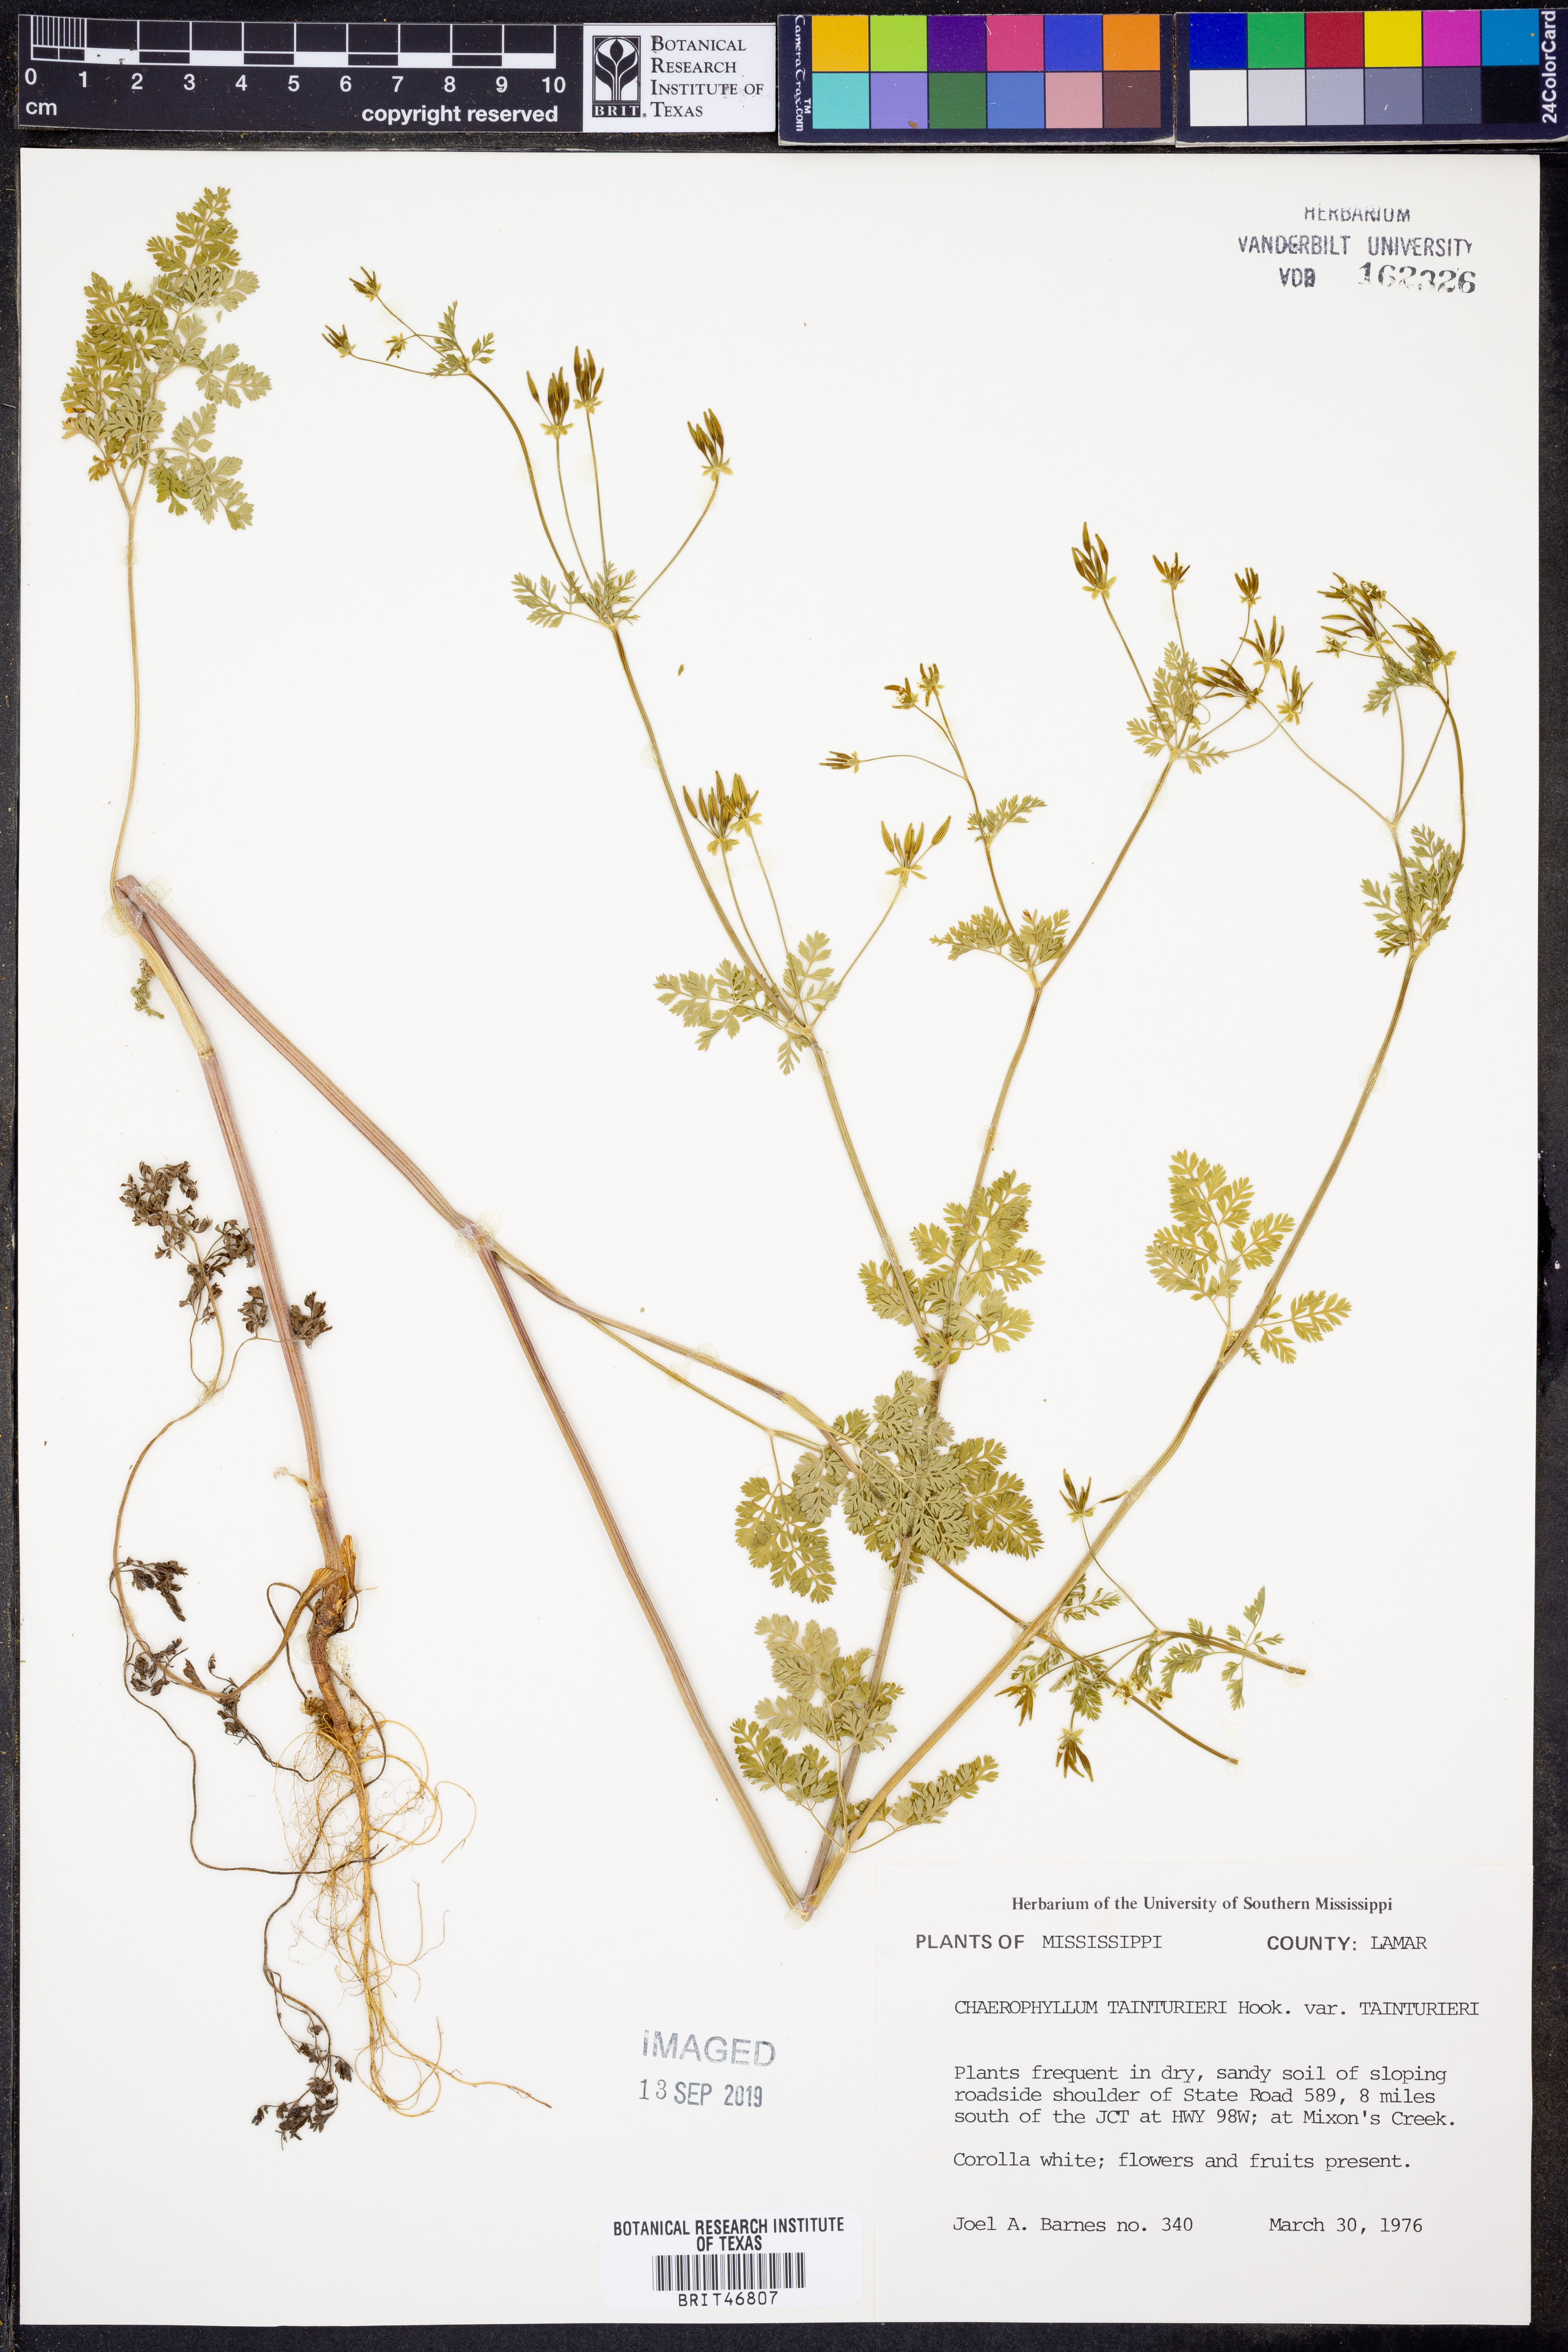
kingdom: Plantae
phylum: Tracheophyta
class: Magnoliopsida
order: Apiales
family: Apiaceae
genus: Chaerophyllum
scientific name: Chaerophyllum tainturieri
